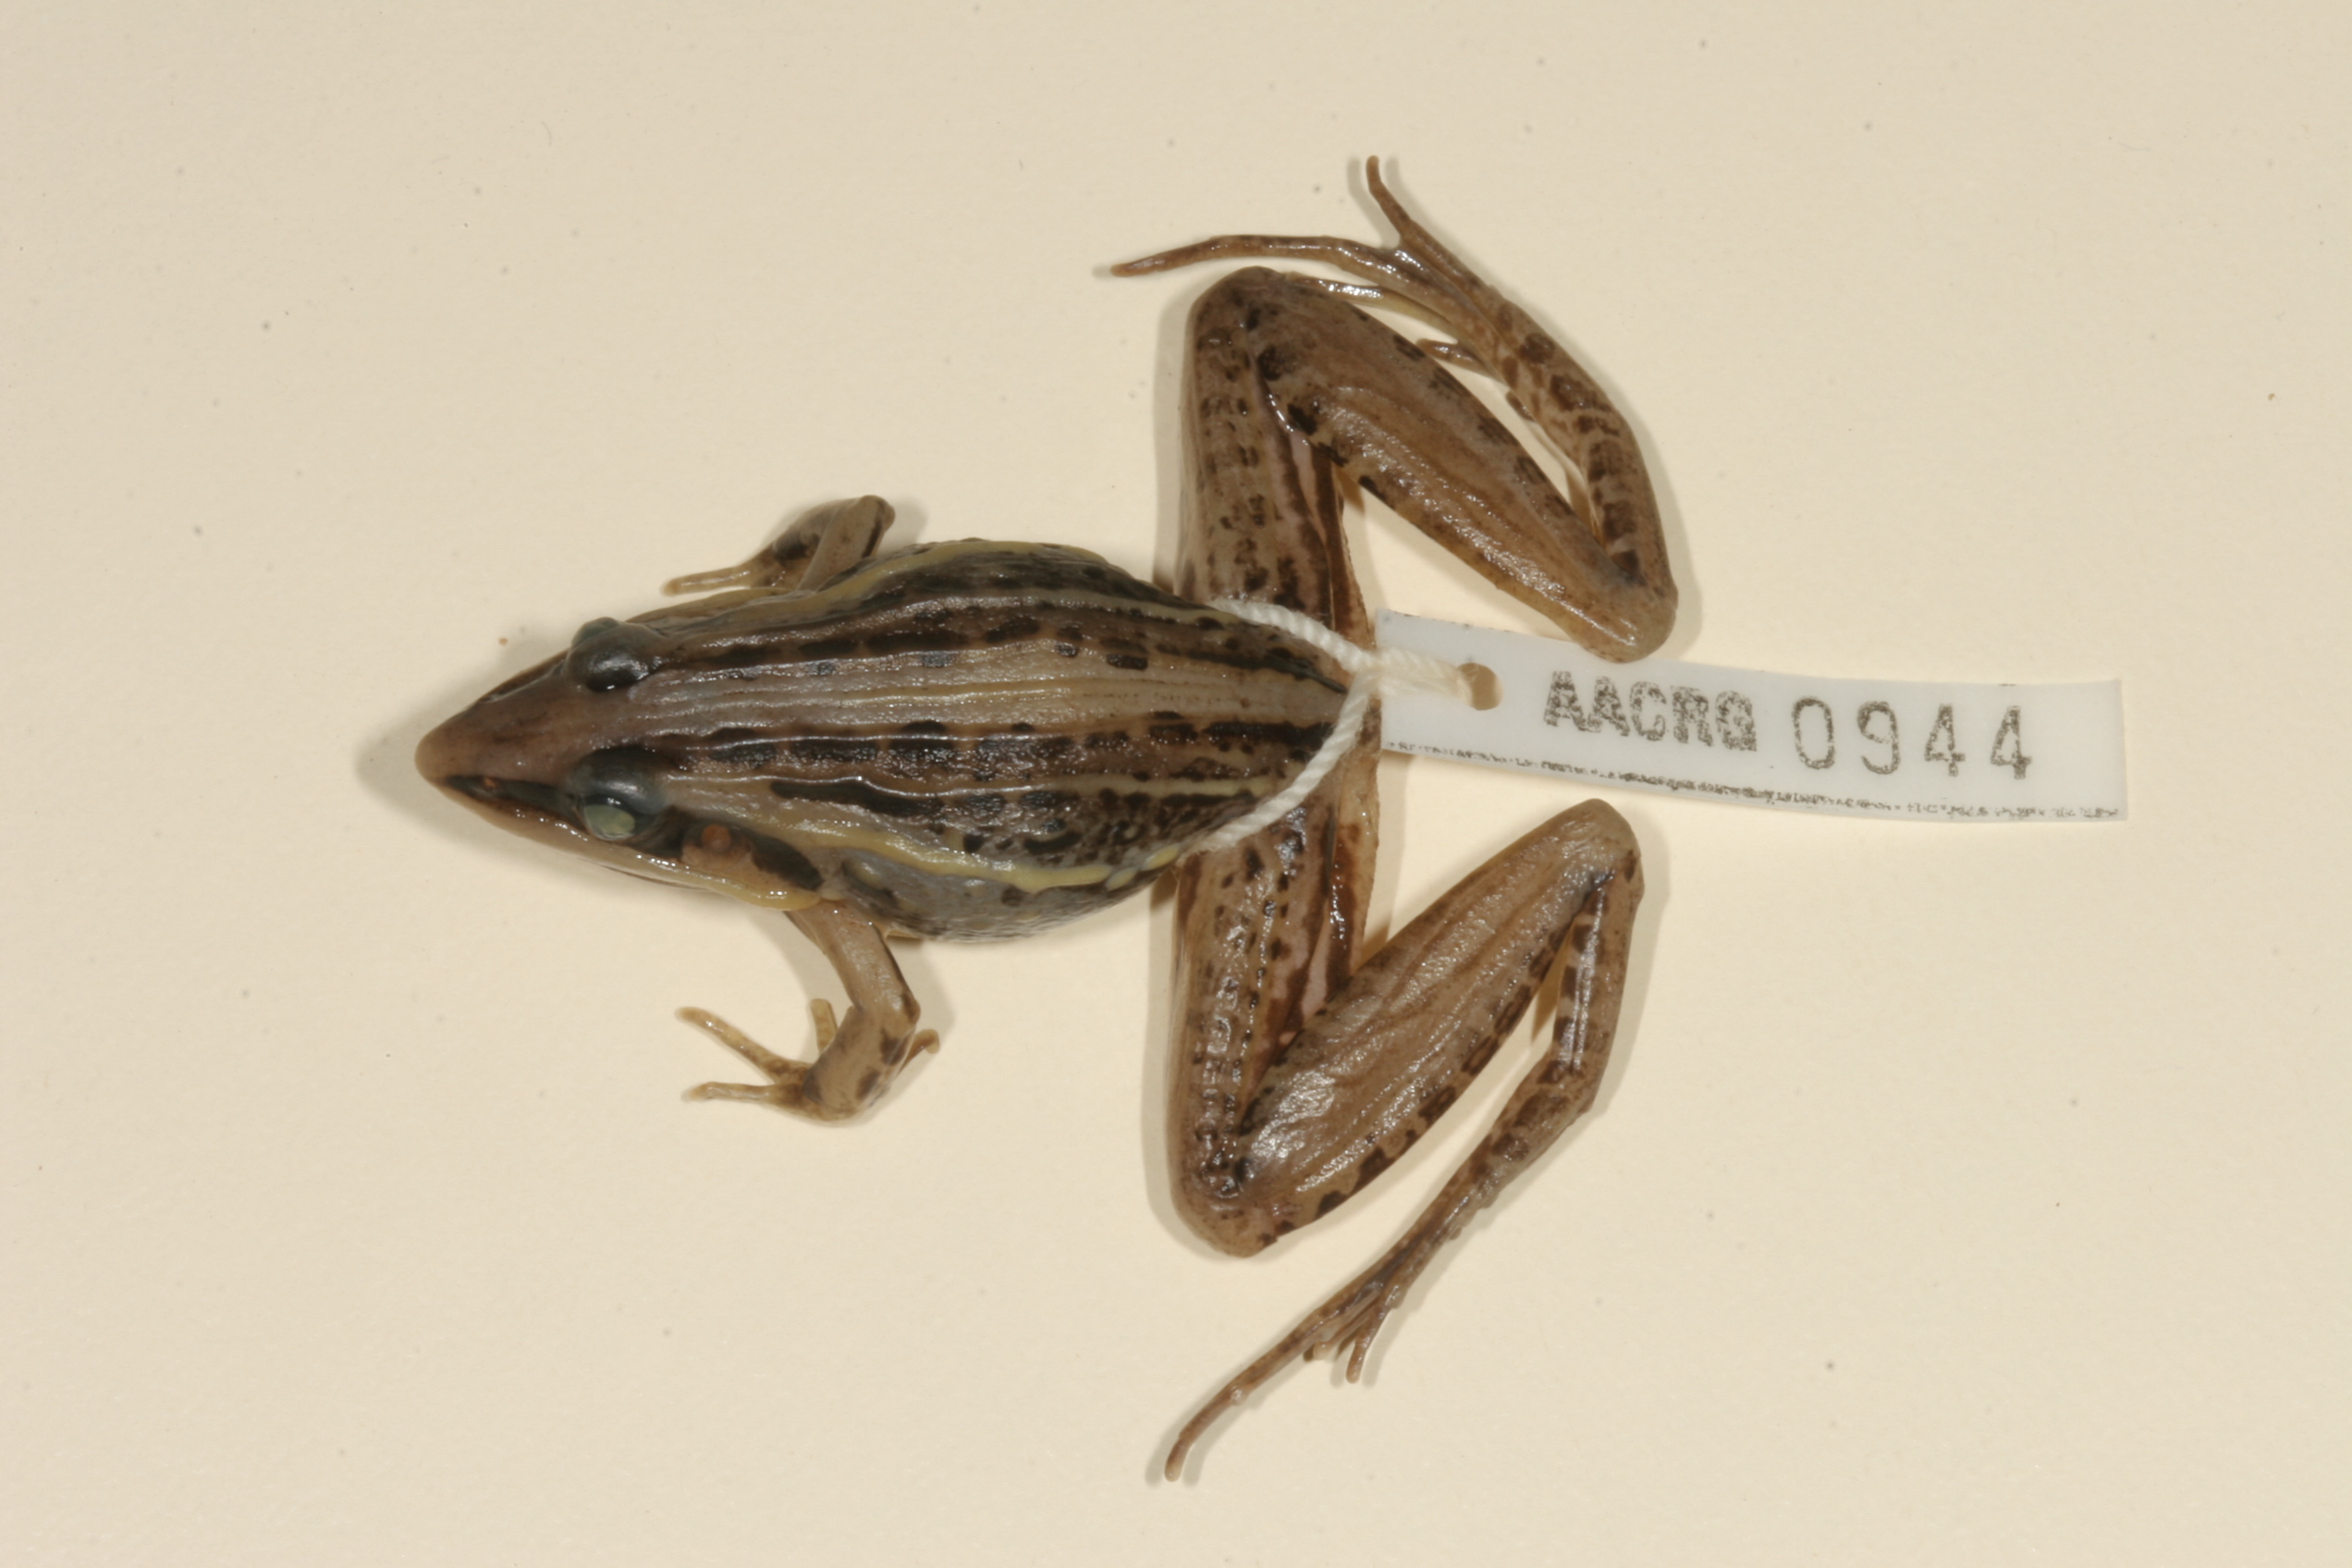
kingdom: Animalia
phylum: Chordata
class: Amphibia
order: Anura
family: Ptychadenidae
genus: Ptychadena
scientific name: Ptychadena guibei
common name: Guibe's grassland frog
